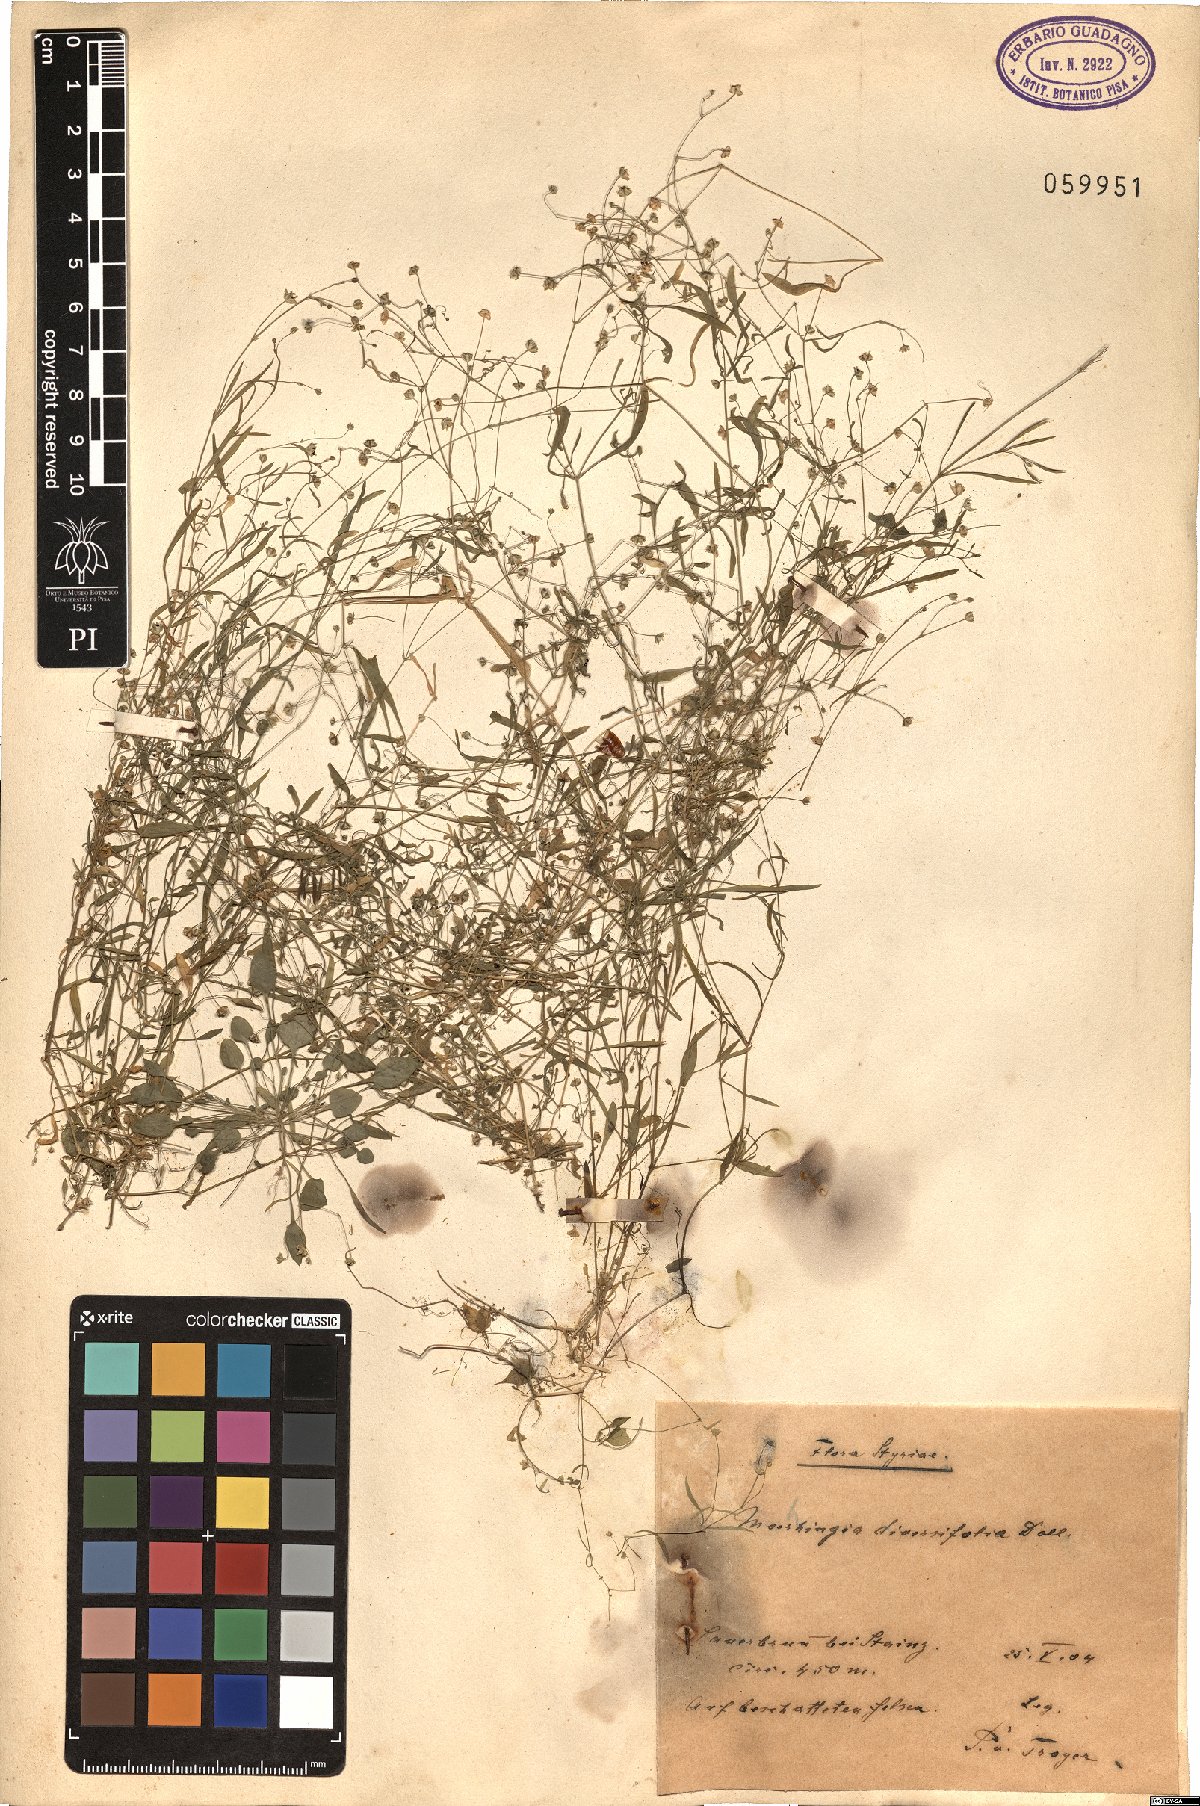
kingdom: Plantae
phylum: Tracheophyta
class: Magnoliopsida
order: Caryophyllales
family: Caryophyllaceae
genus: Moehringia
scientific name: Moehringia diversifolia
